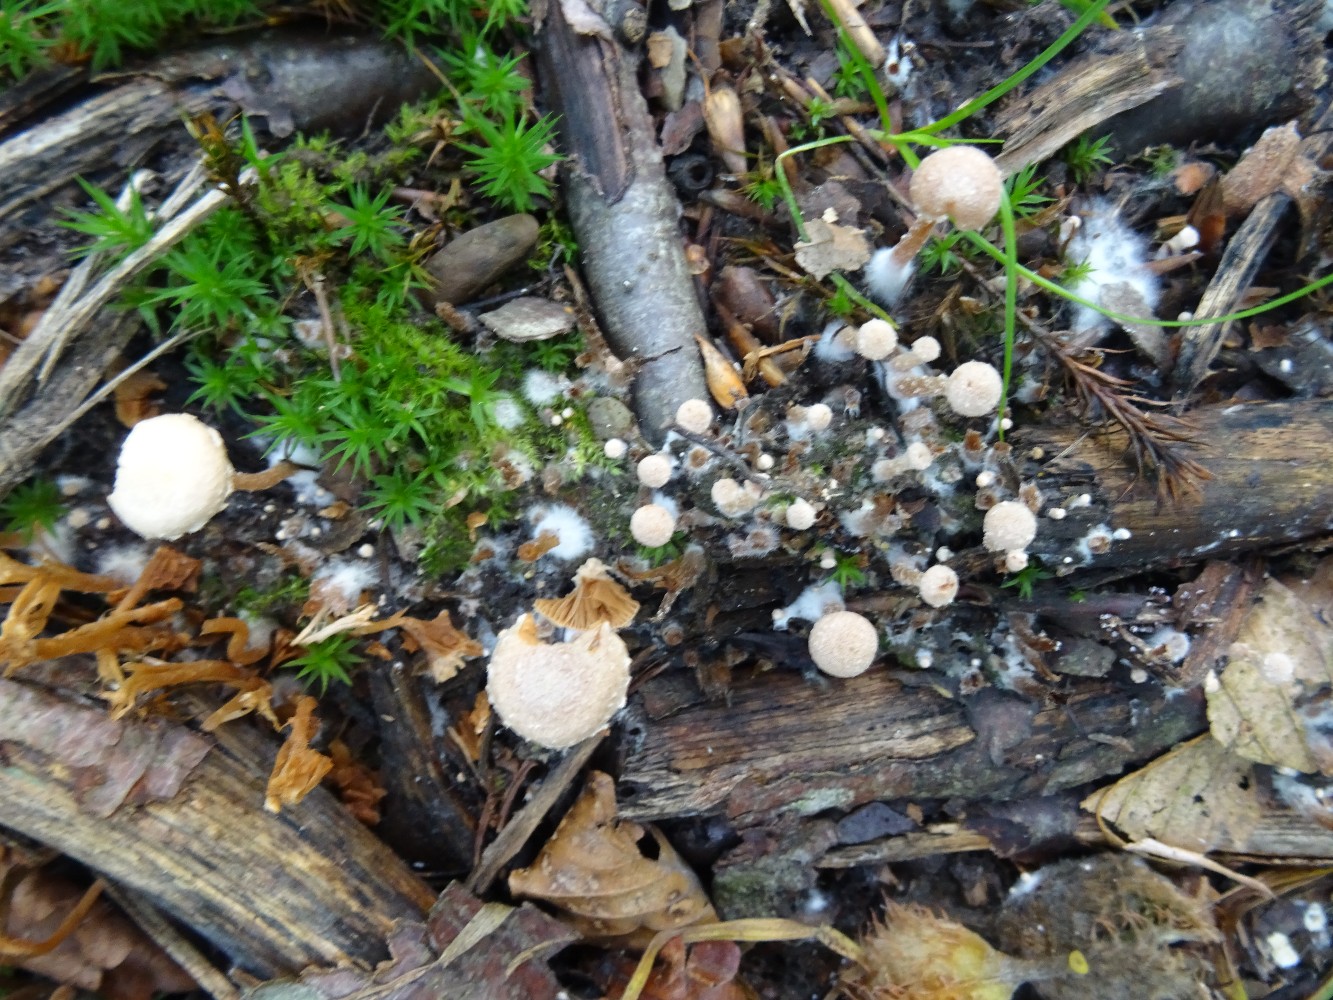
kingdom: Fungi
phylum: Basidiomycota
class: Agaricomycetes
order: Agaricales
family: Tubariaceae
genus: Tubaria
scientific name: Tubaria conspersa
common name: bleg fnughat
